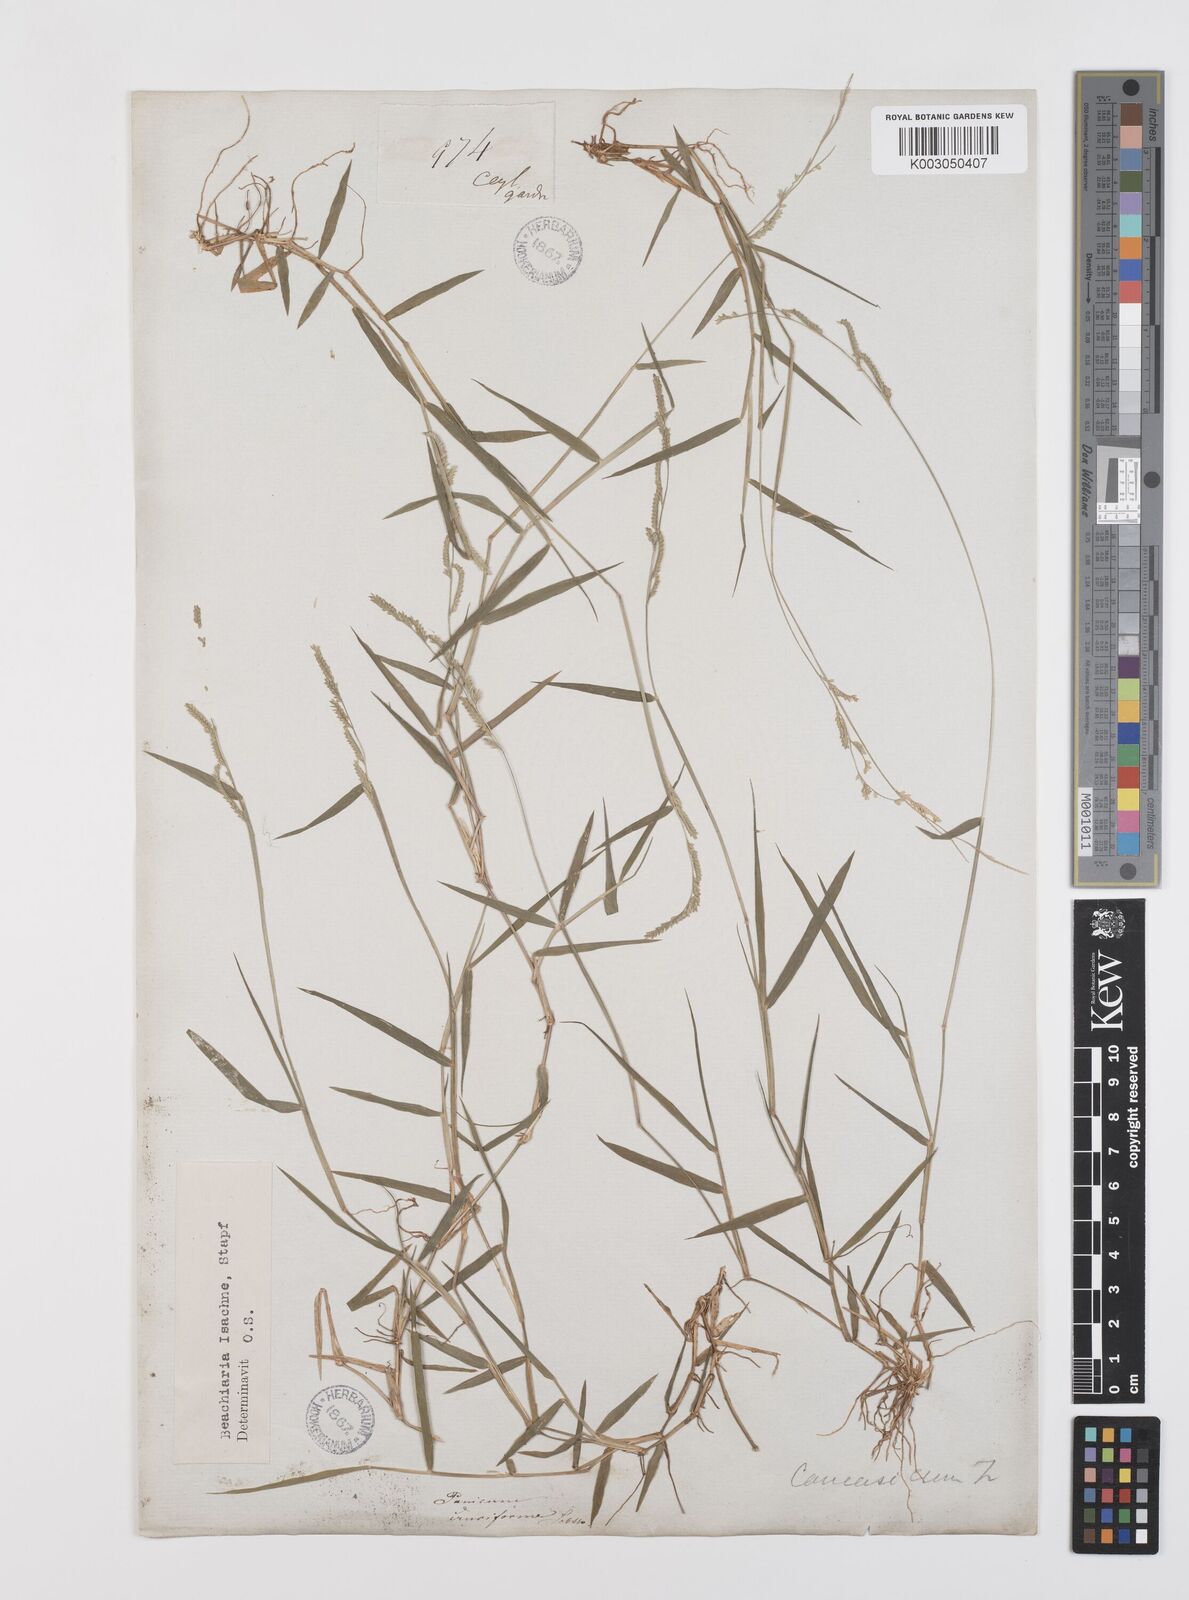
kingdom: Plantae
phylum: Tracheophyta
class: Liliopsida
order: Poales
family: Poaceae
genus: Moorochloa
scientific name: Moorochloa eruciformis
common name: Sweet signalgrass
